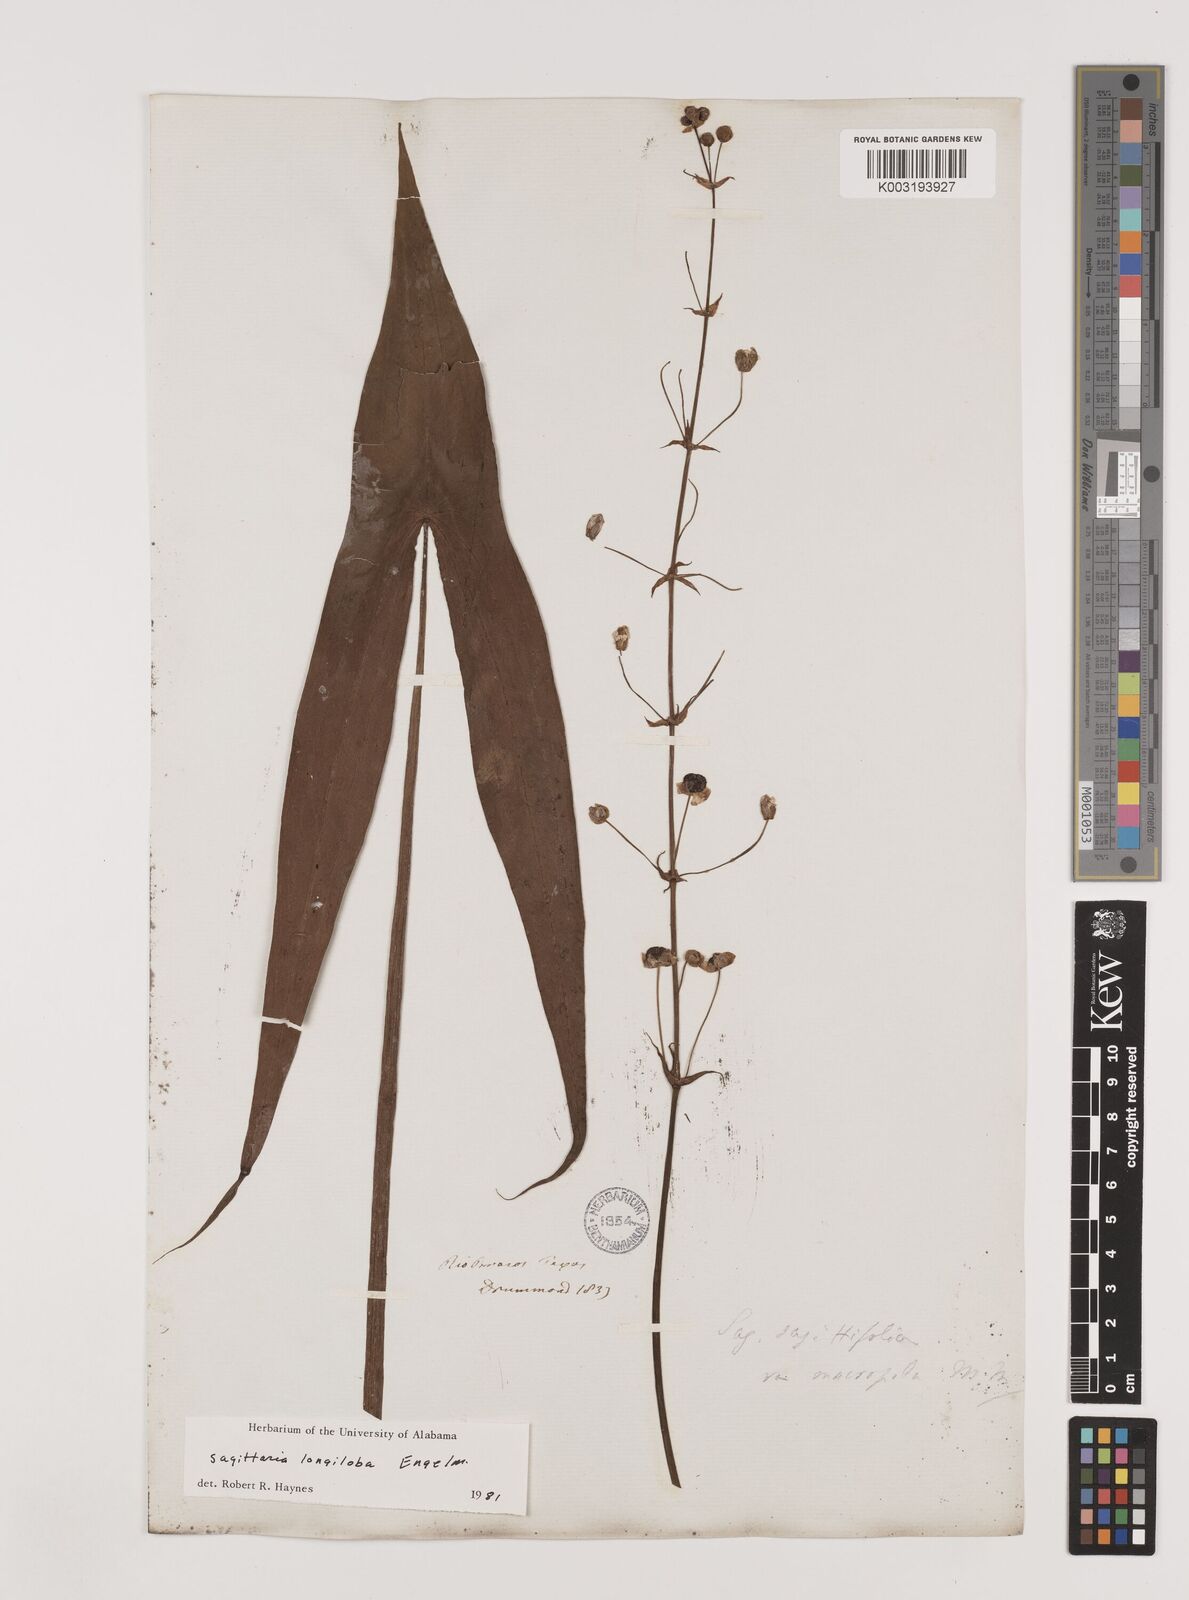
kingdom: Plantae
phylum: Tracheophyta
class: Liliopsida
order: Alismatales
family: Alismataceae
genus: Sagittaria
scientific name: Sagittaria longiloba
